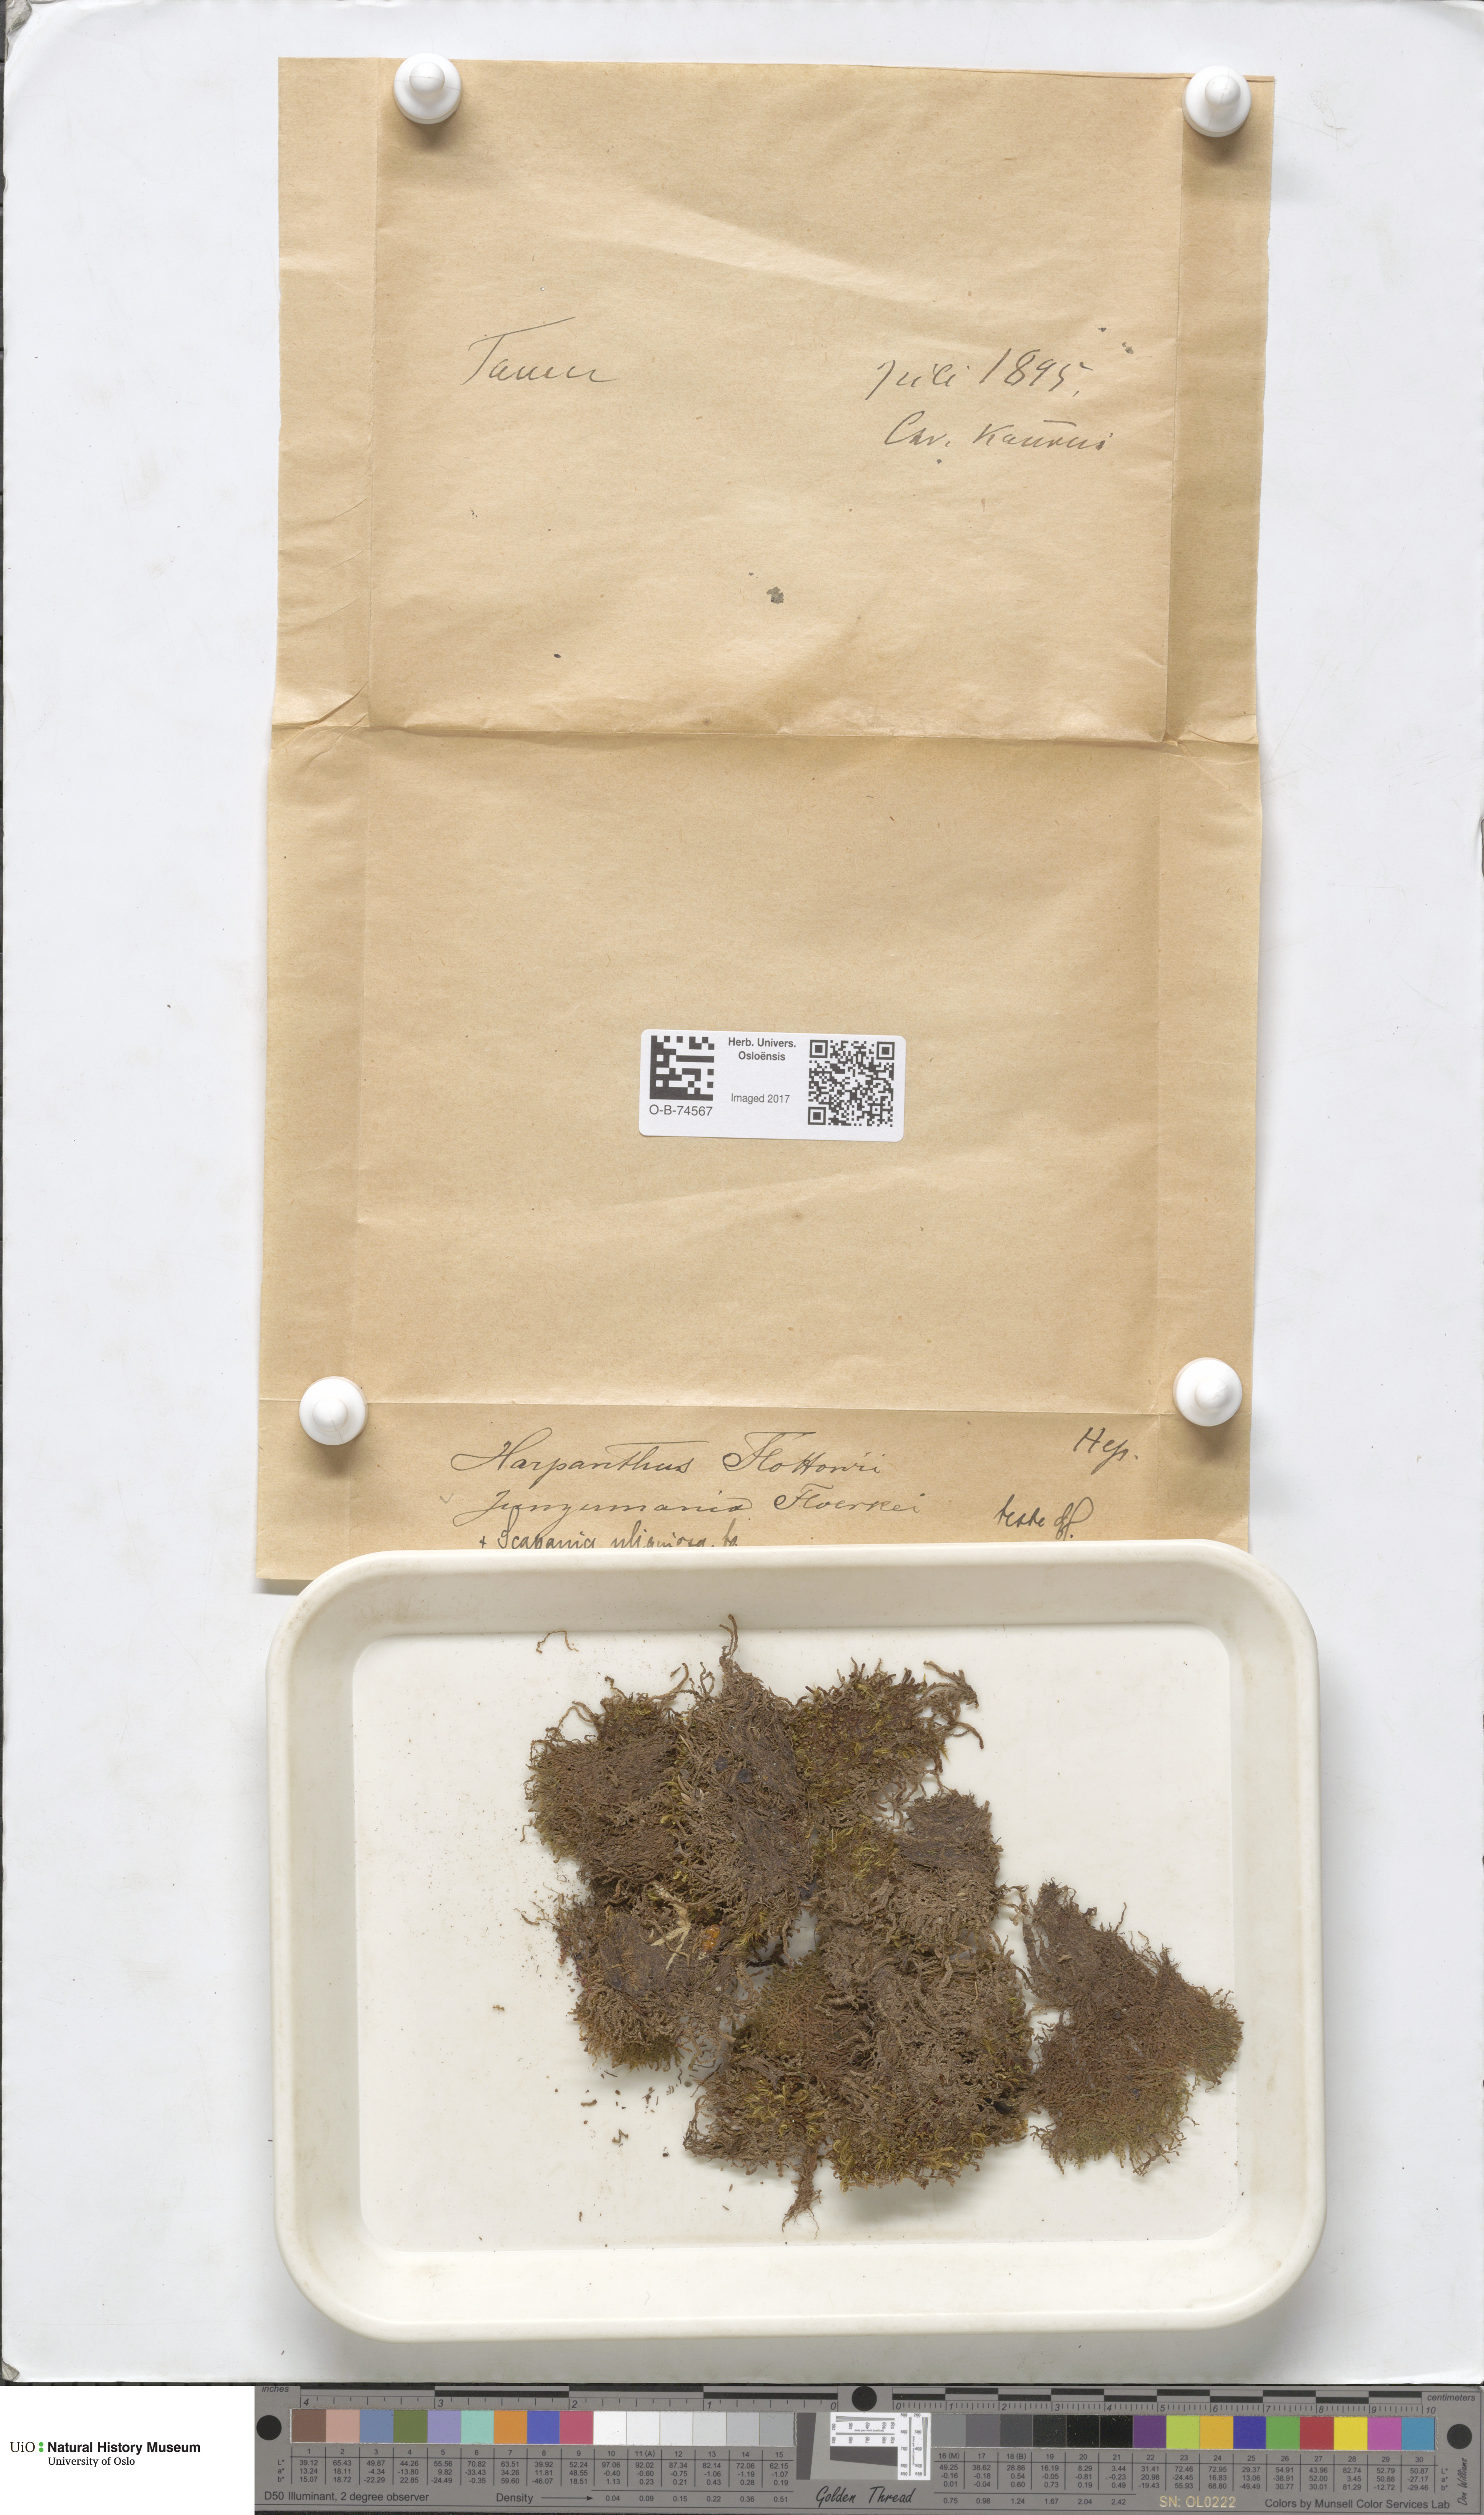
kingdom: Plantae
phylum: Marchantiophyta
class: Jungermanniopsida
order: Jungermanniales
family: Harpanthaceae
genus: Harpanthus
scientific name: Harpanthus flotovianus
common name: Great mountain flapwort
